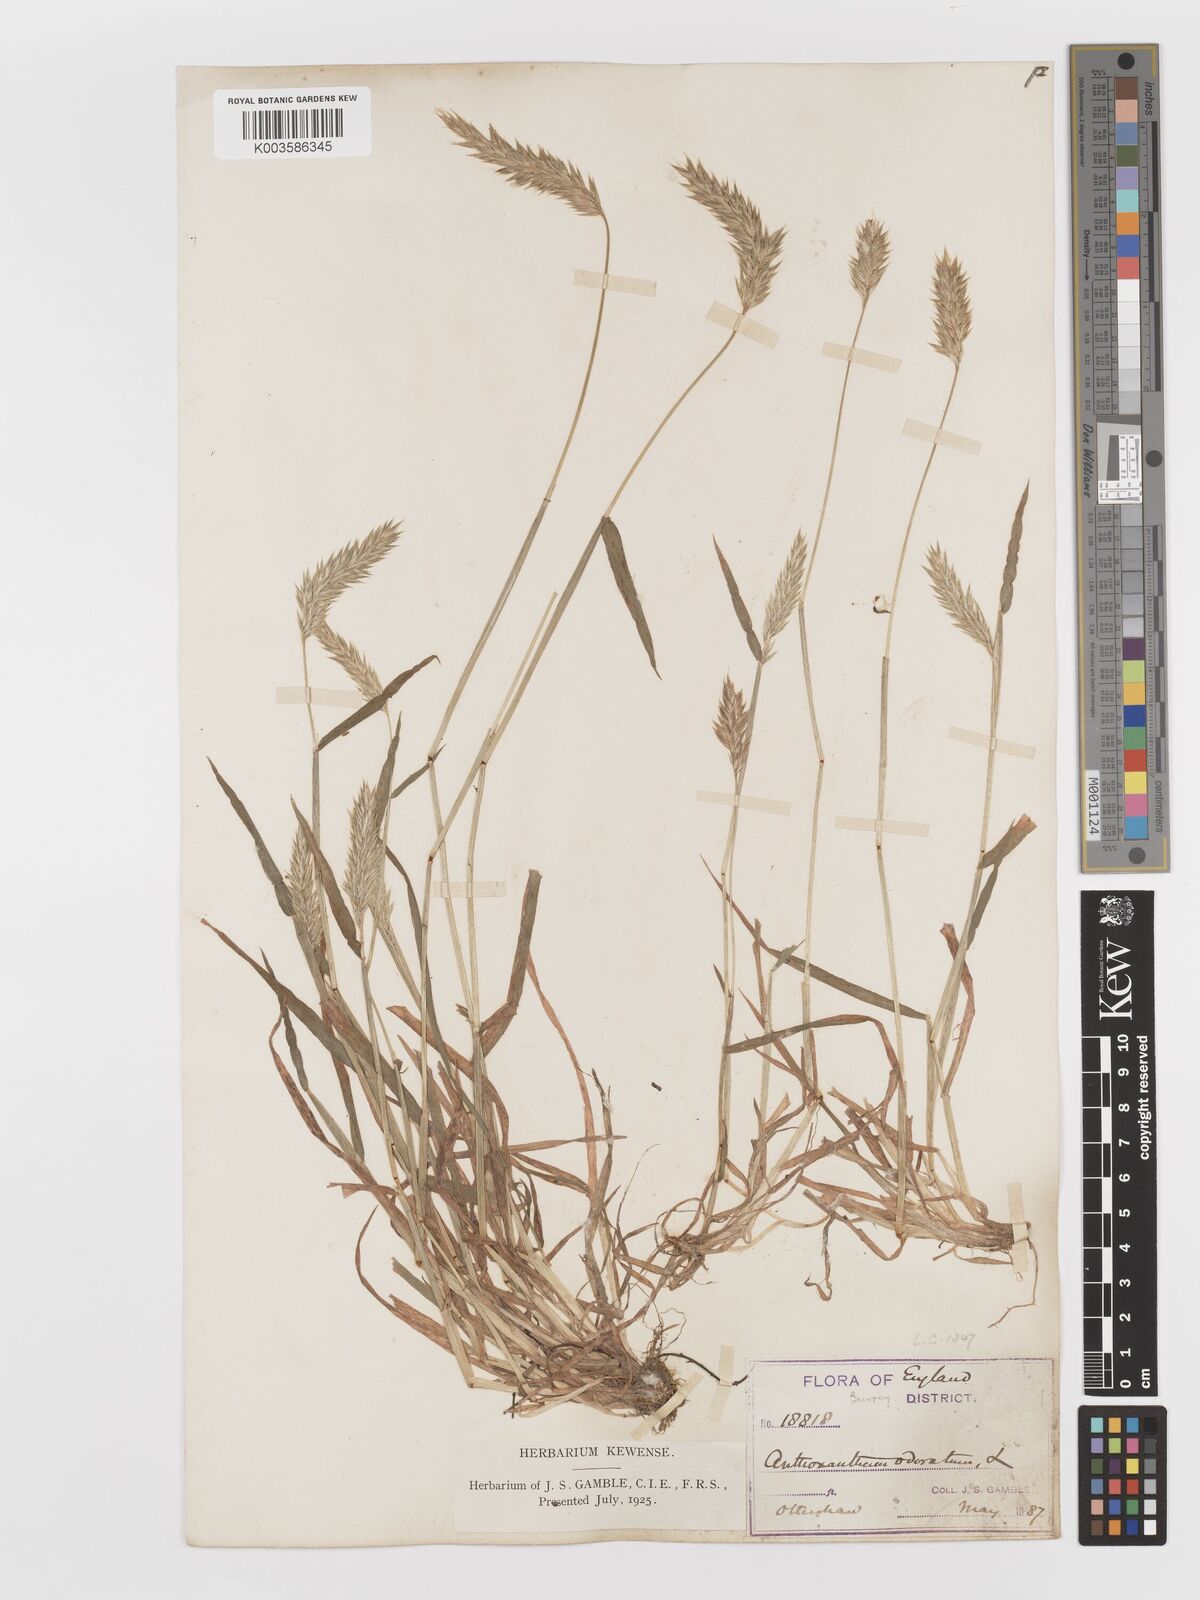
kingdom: Plantae
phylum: Tracheophyta
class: Liliopsida
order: Poales
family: Poaceae
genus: Anthoxanthum
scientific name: Anthoxanthum odoratum
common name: Sweet vernalgrass
